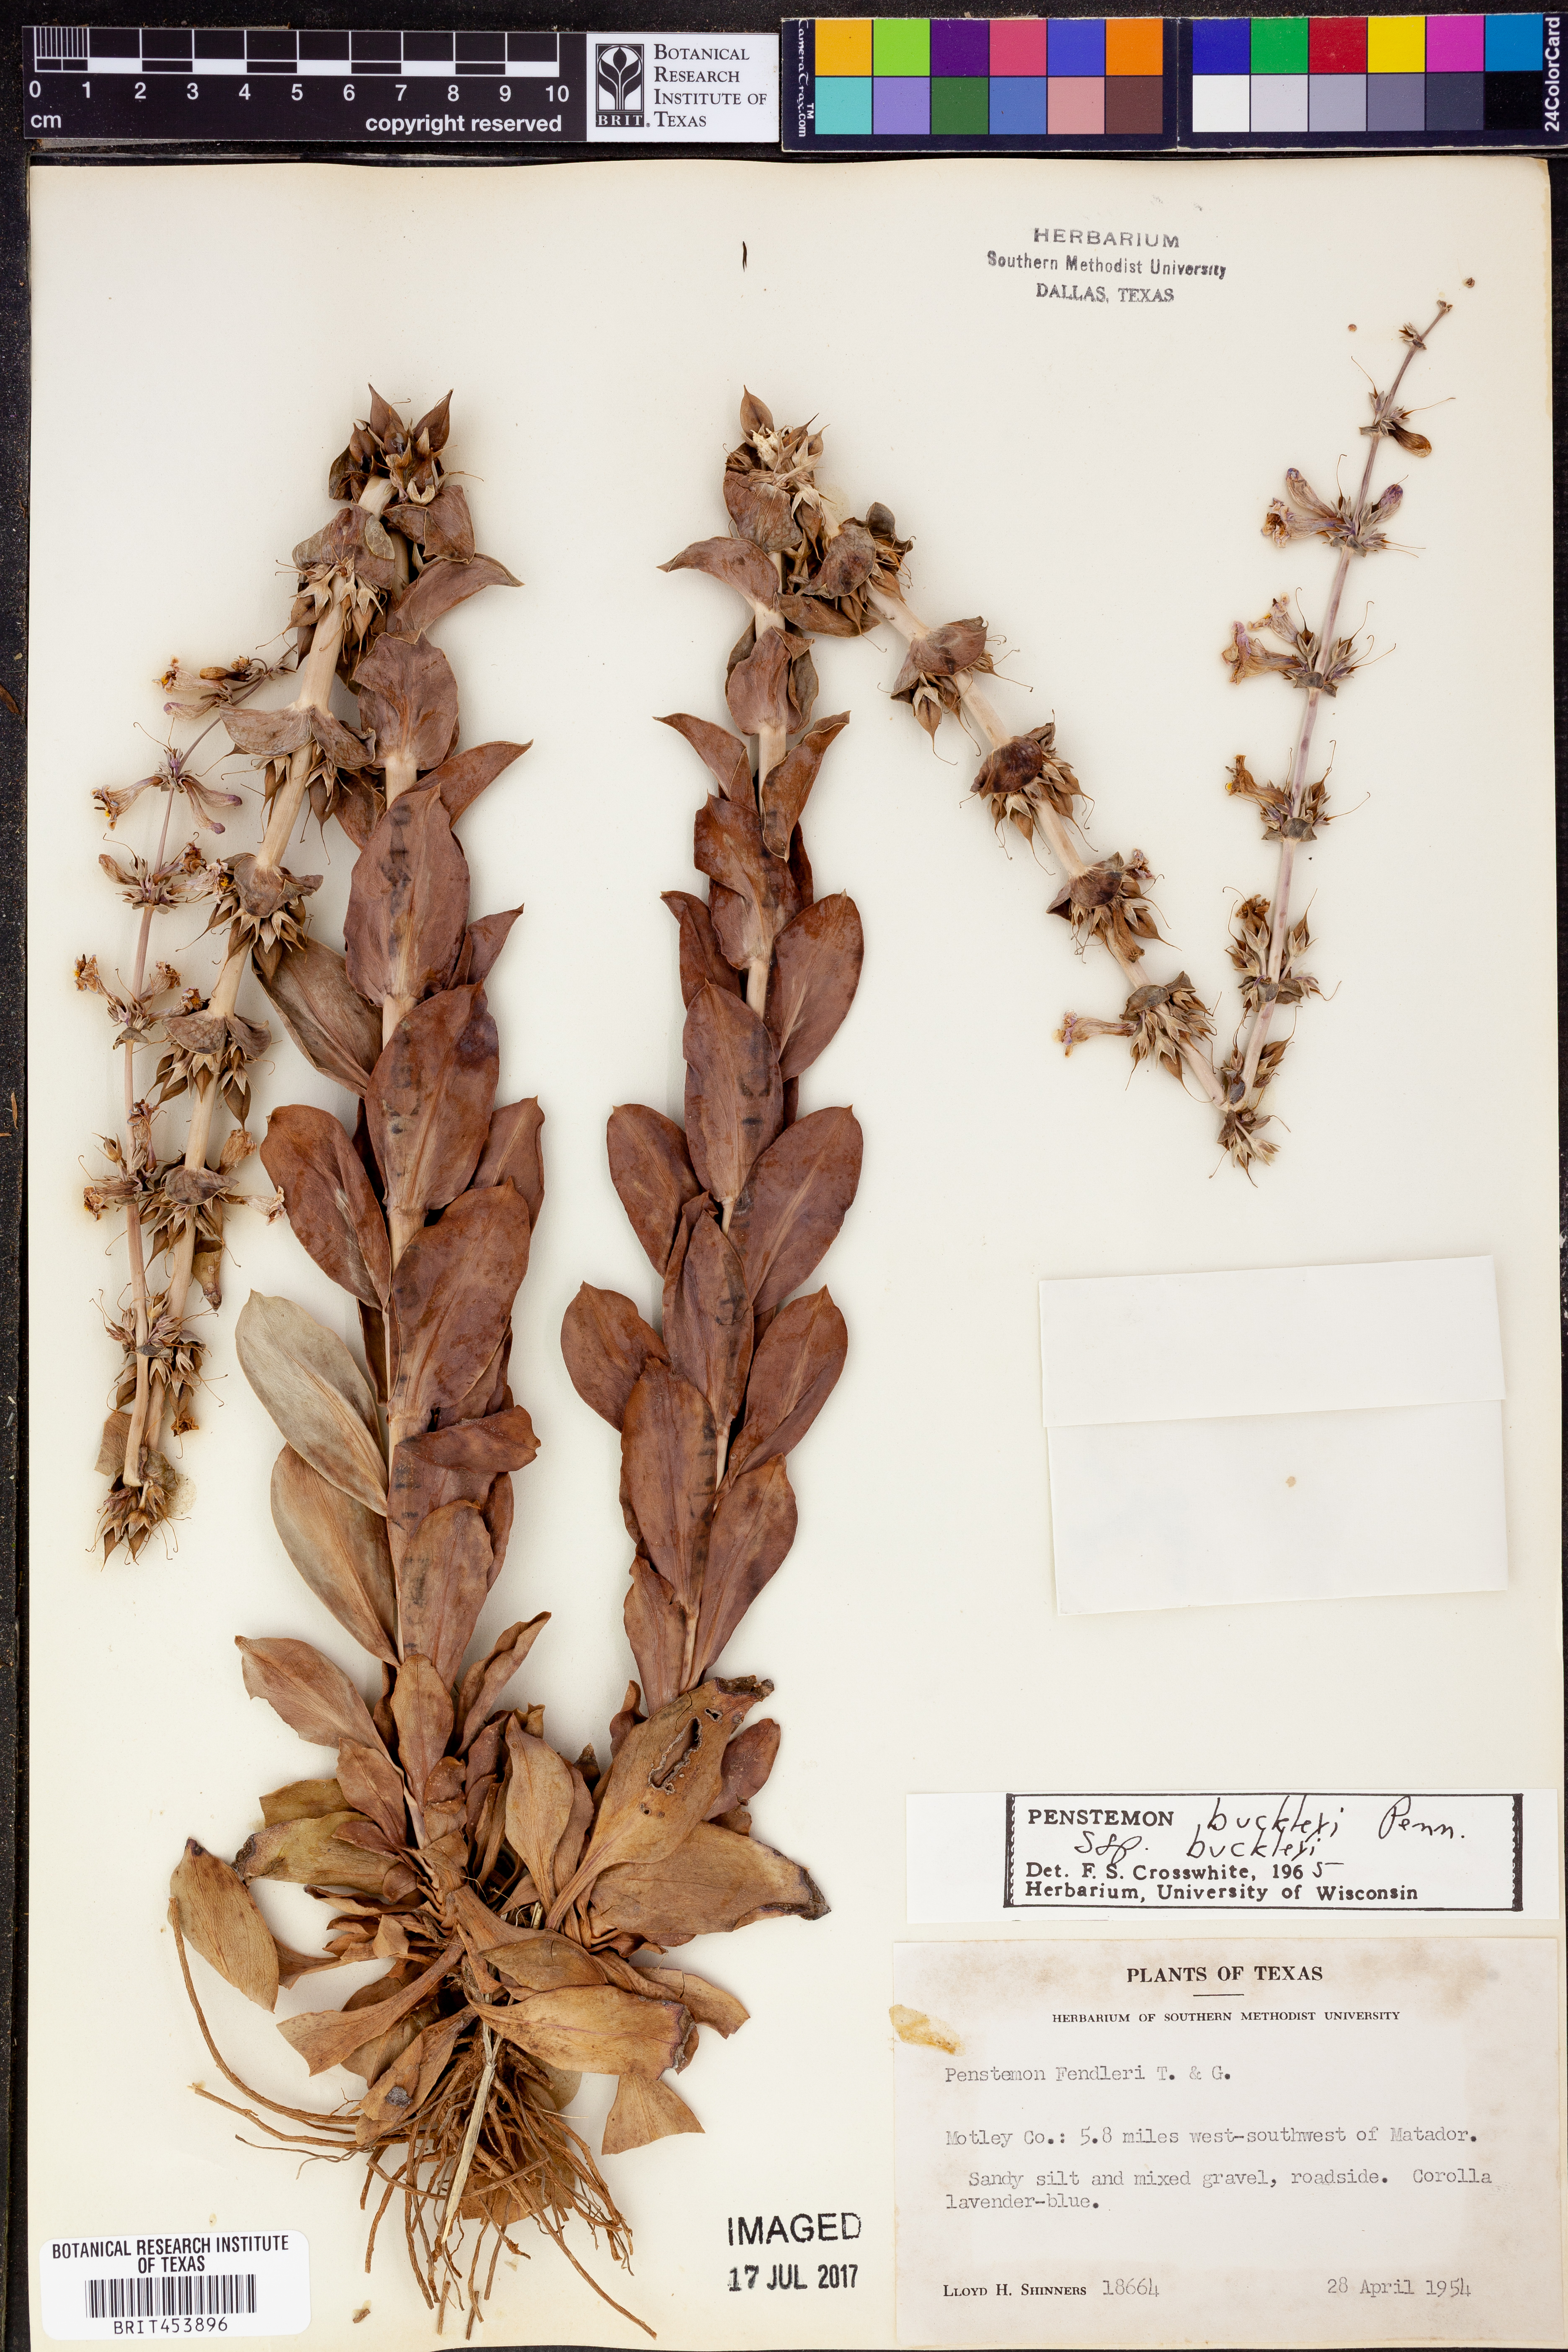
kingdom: Plantae
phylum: Tracheophyta
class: Magnoliopsida
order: Lamiales
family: Plantaginaceae
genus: Penstemon
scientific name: Penstemon buckleyi
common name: Buckley's penstemon
